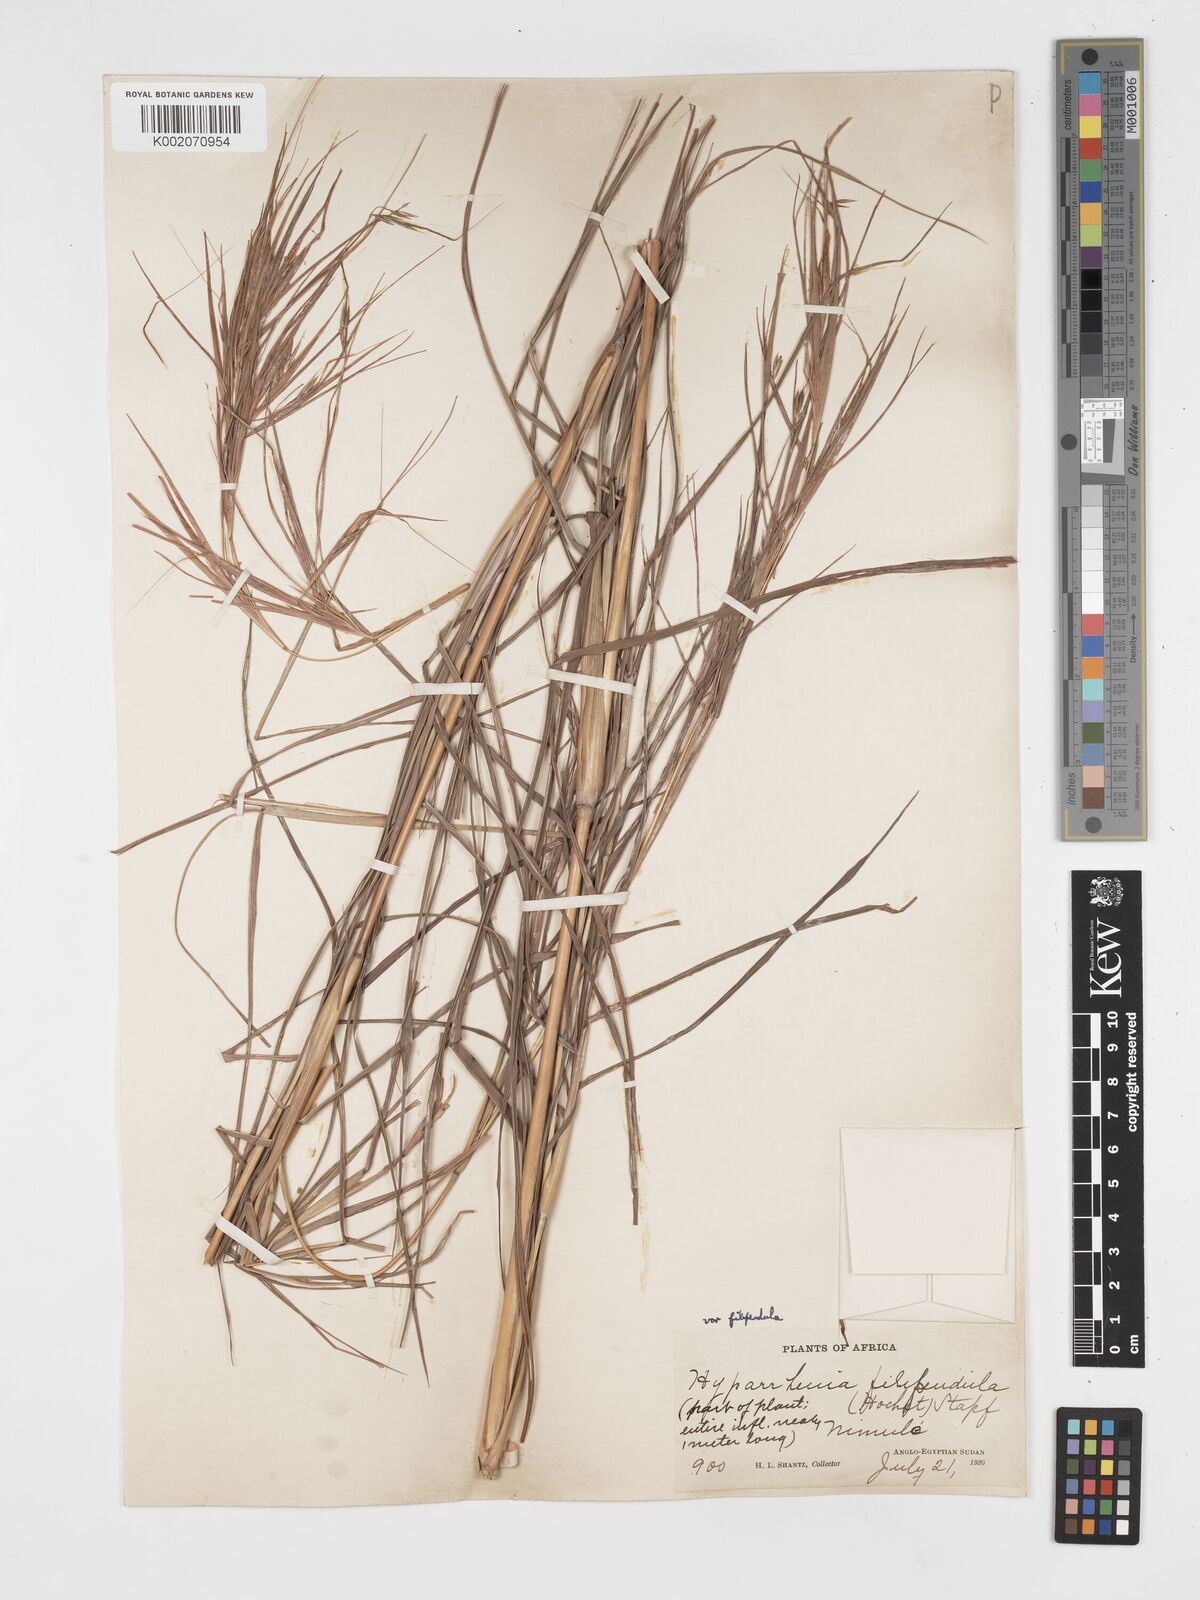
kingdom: Plantae
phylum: Tracheophyta
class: Liliopsida
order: Poales
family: Poaceae
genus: Hyparrhenia
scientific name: Hyparrhenia filipendula
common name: Tambookie grass
